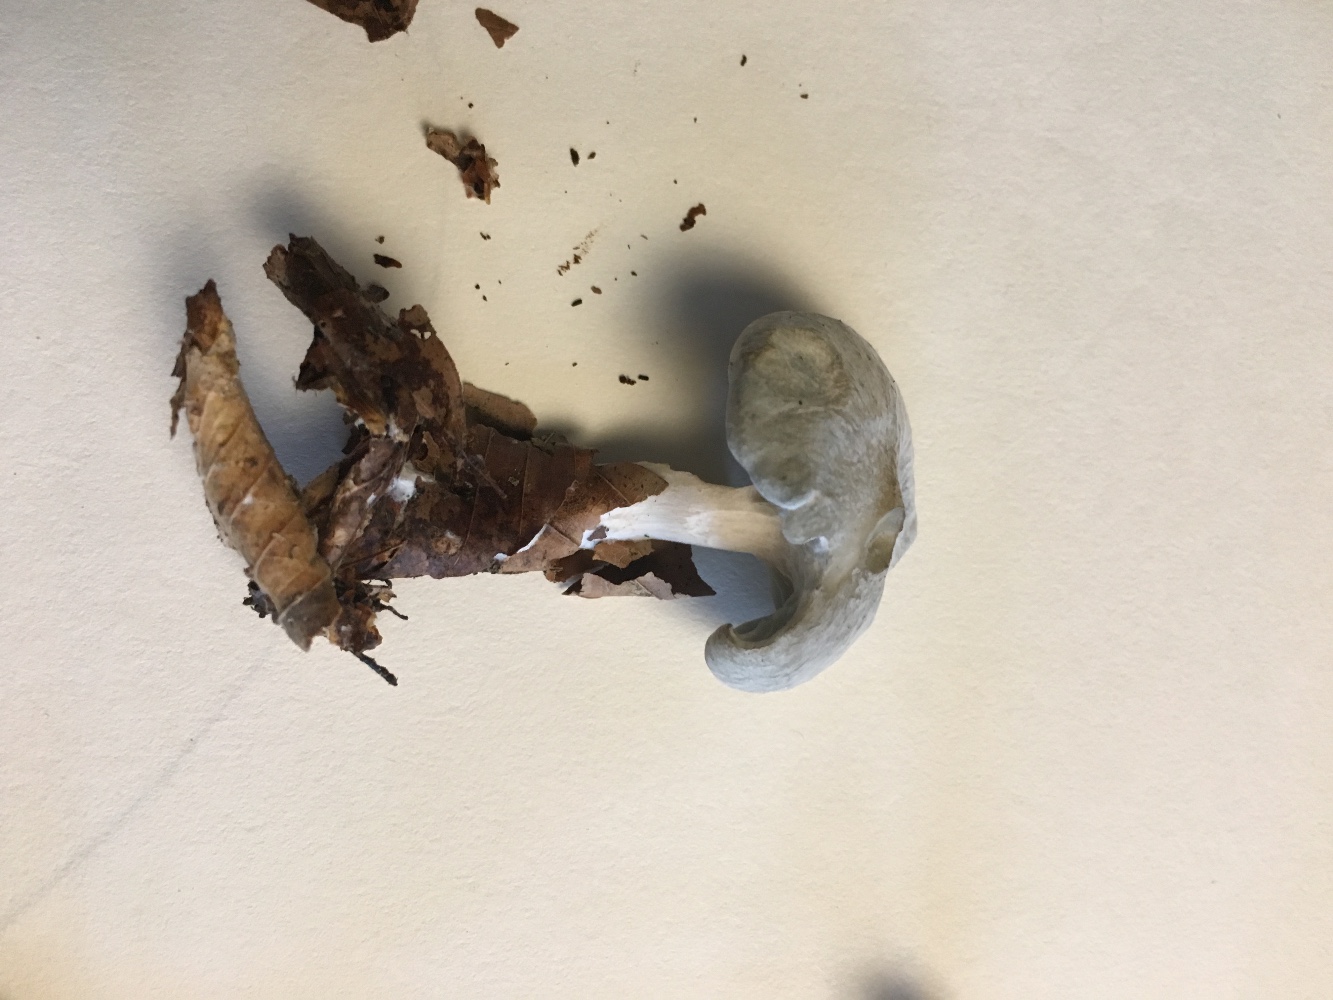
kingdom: Fungi
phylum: Basidiomycota
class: Agaricomycetes
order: Agaricales
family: Tricholomataceae
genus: Clitocybe
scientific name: Clitocybe odora
